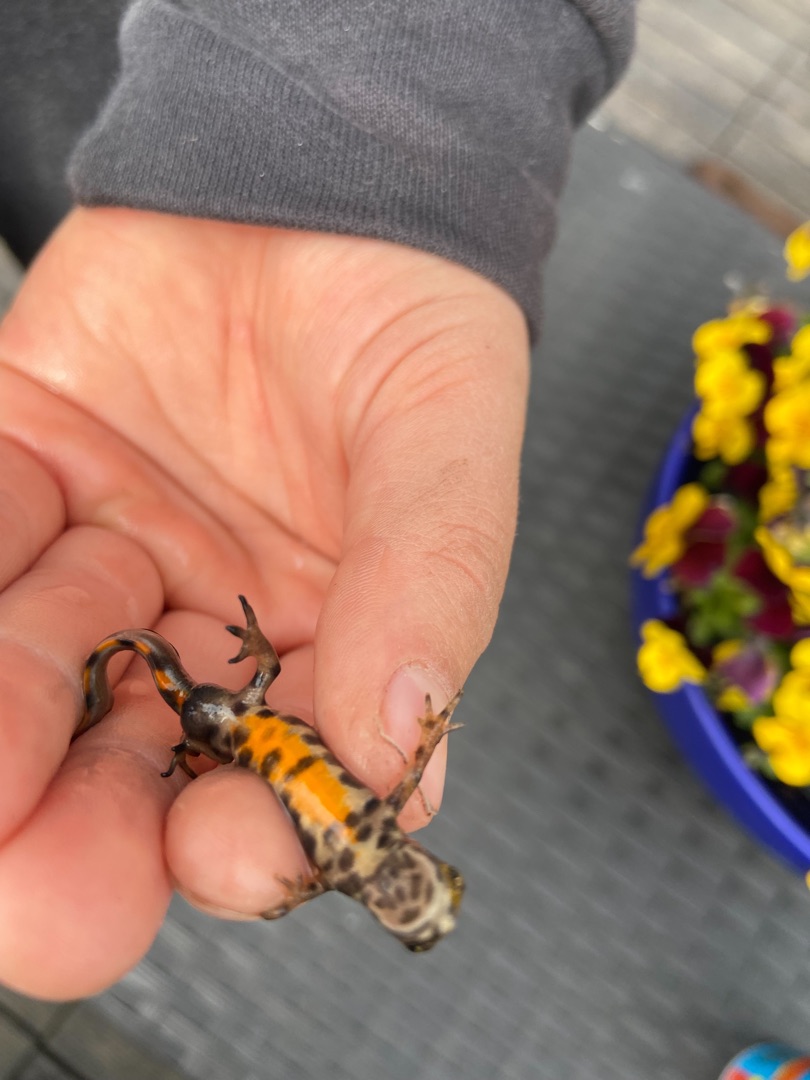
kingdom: Animalia
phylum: Chordata
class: Amphibia
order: Caudata
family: Salamandridae
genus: Lissotriton
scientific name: Lissotriton vulgaris
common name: Lille vandsalamander
